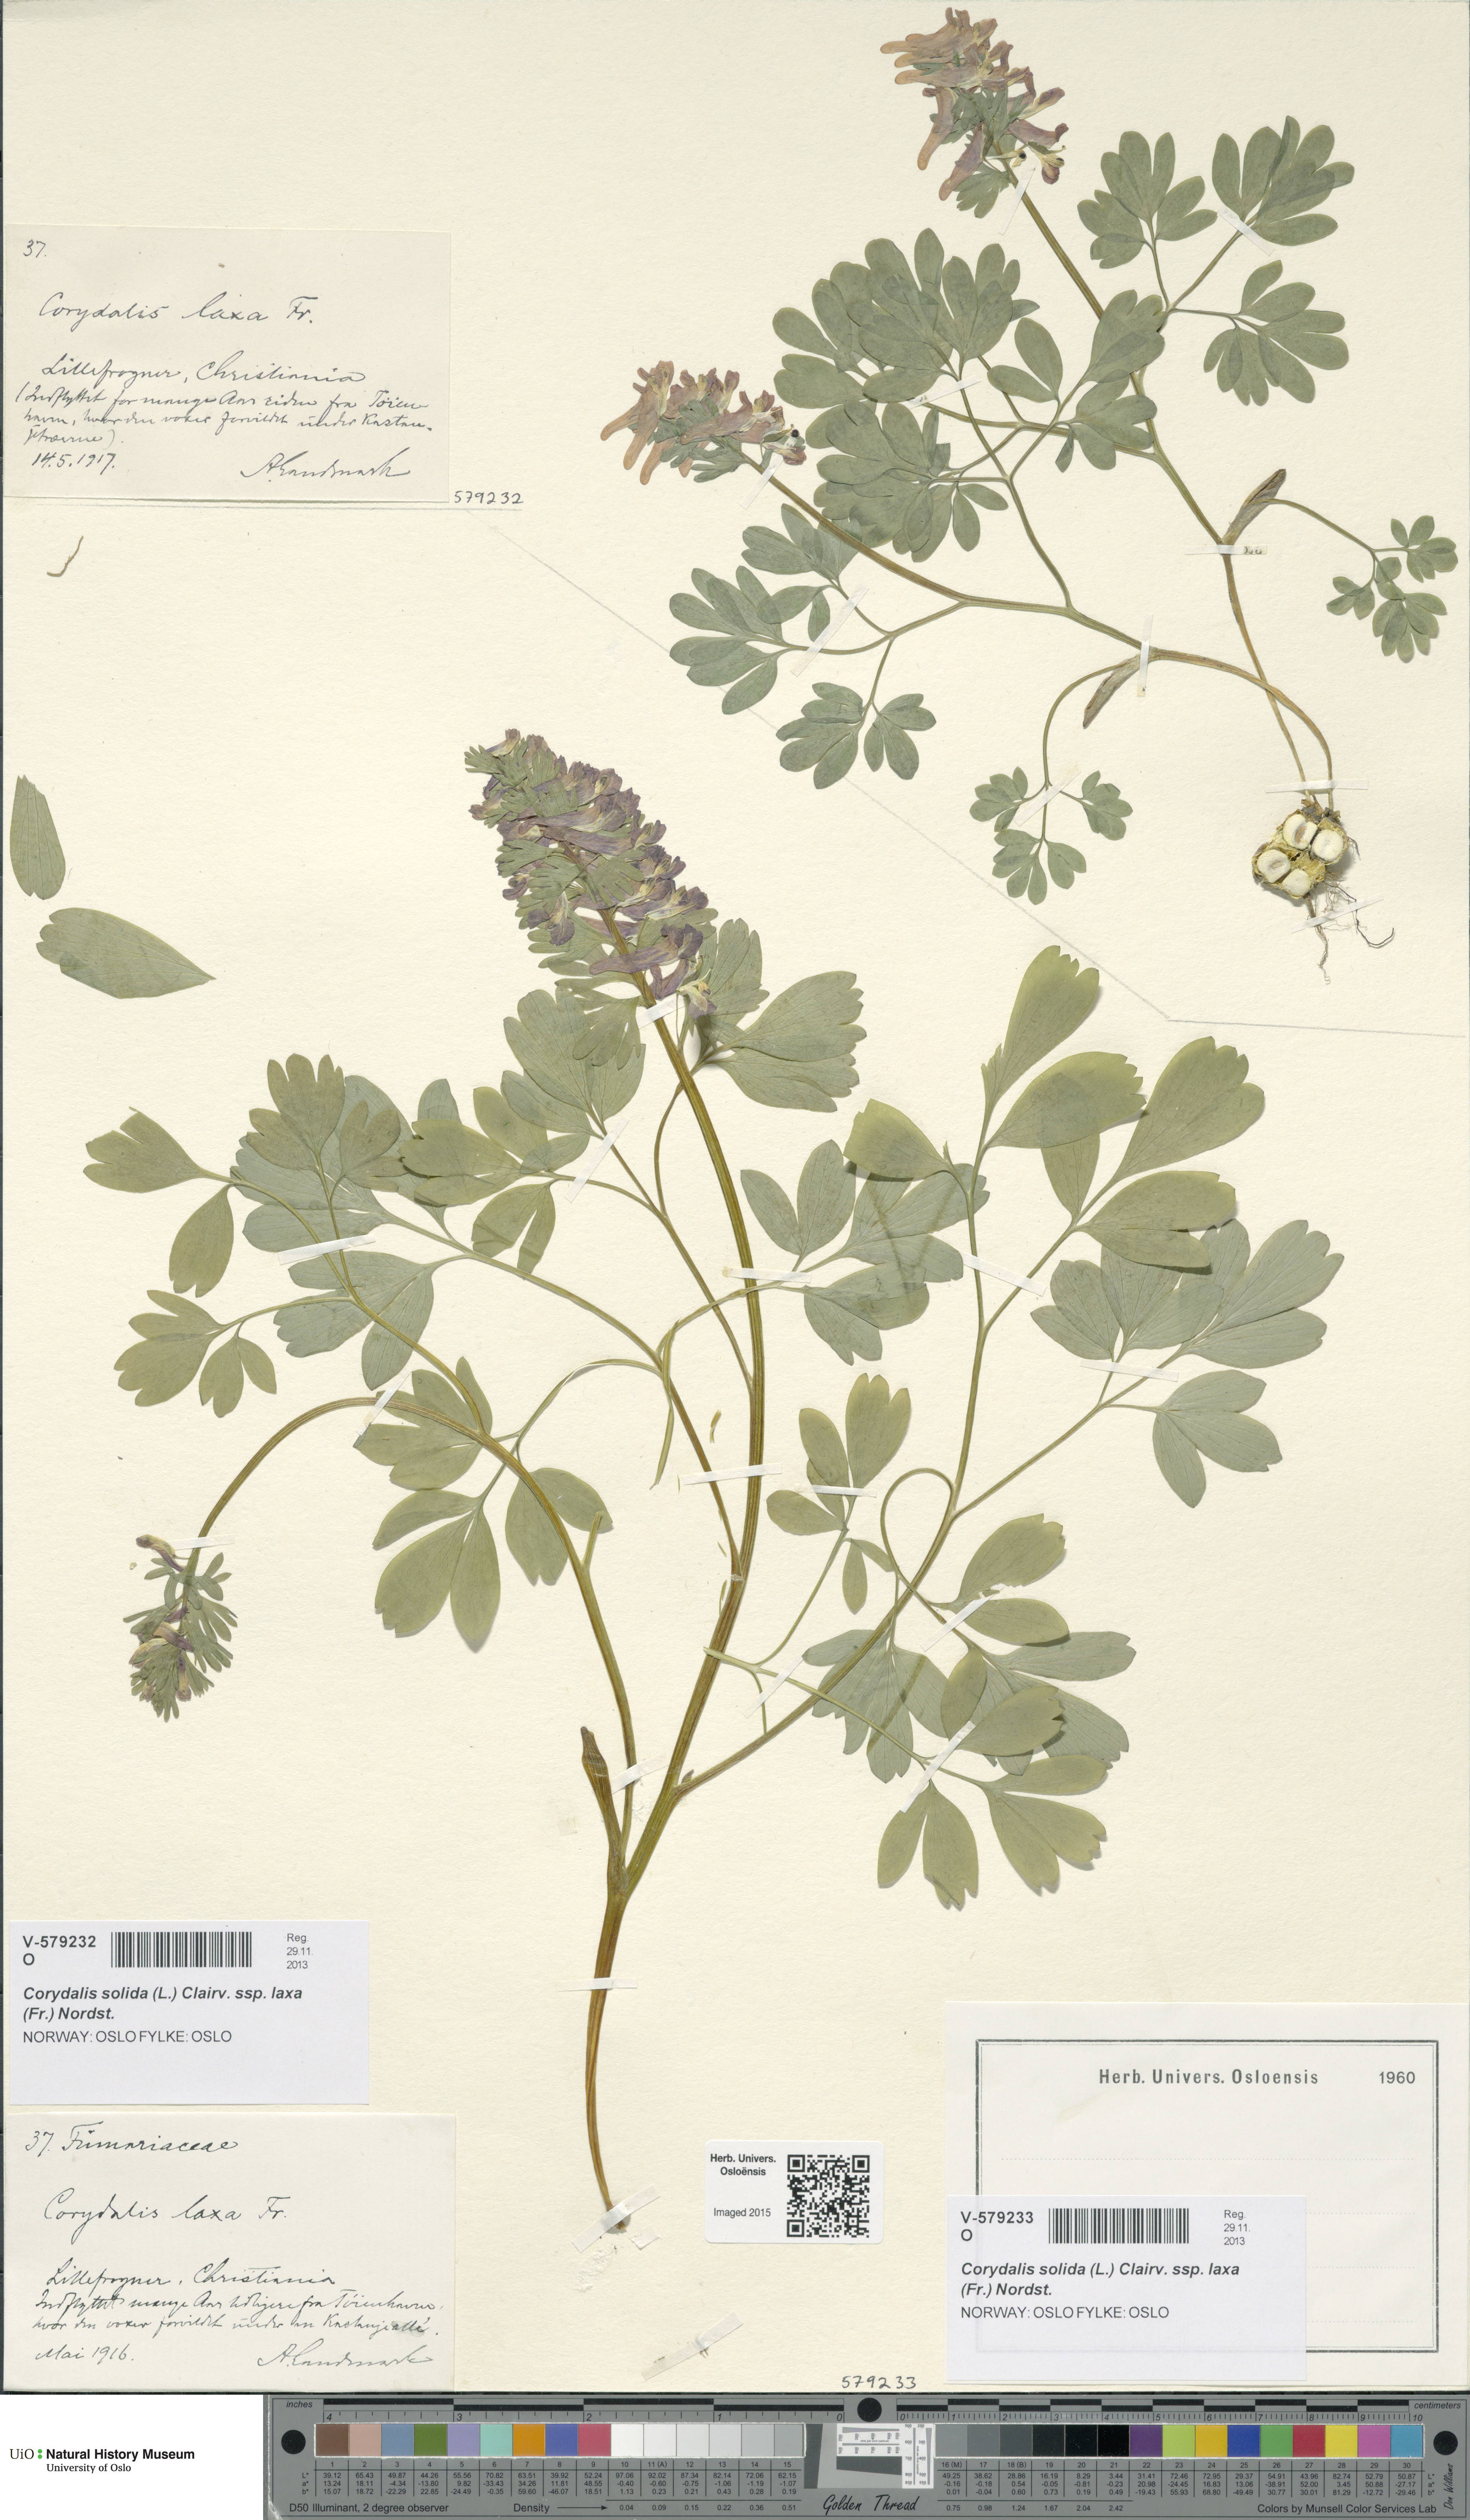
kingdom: Plantae
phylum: Tracheophyta
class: Magnoliopsida
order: Ranunculales
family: Papaveraceae
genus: Corydalis
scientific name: Corydalis solida
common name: Bird-in-a-bush
